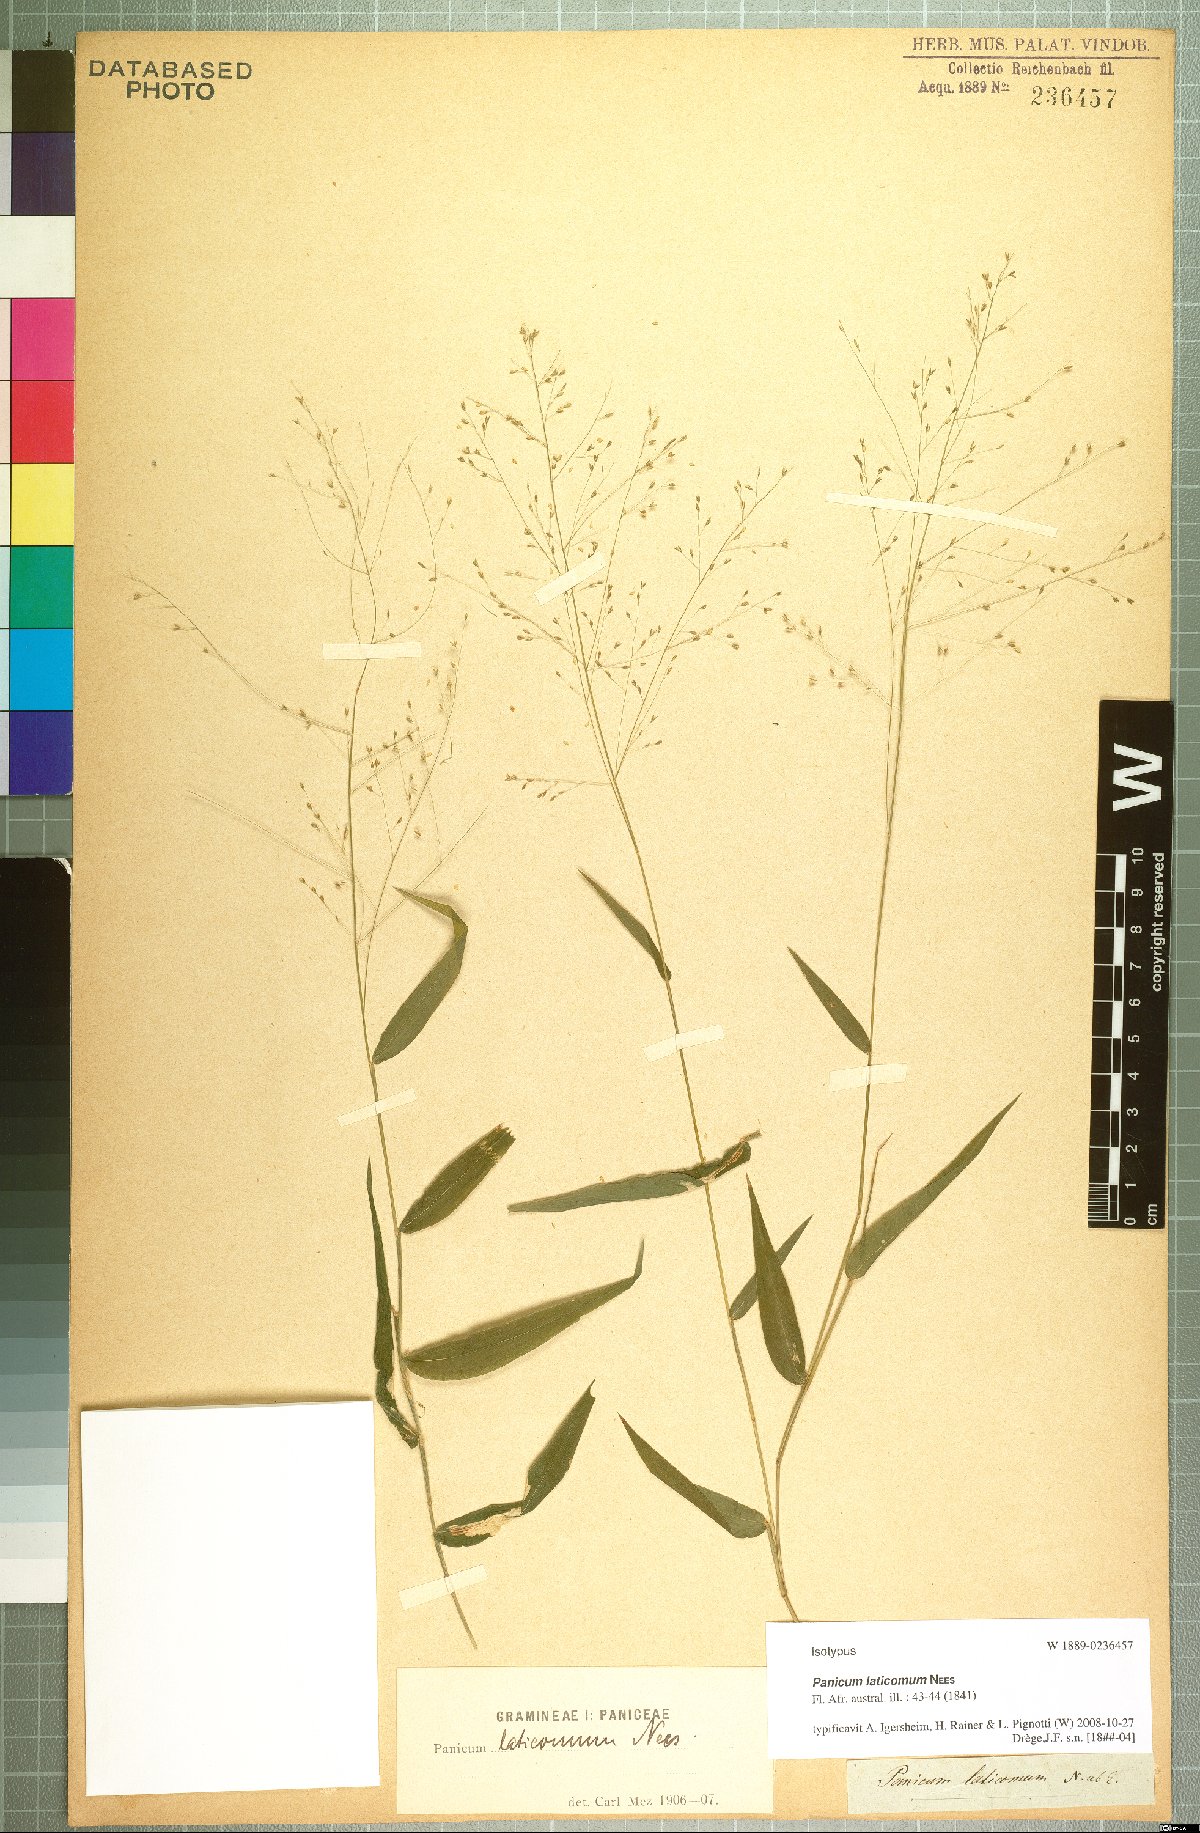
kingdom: Plantae
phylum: Tracheophyta
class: Liliopsida
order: Poales
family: Poaceae
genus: Panicum
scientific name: Panicum laticomum
